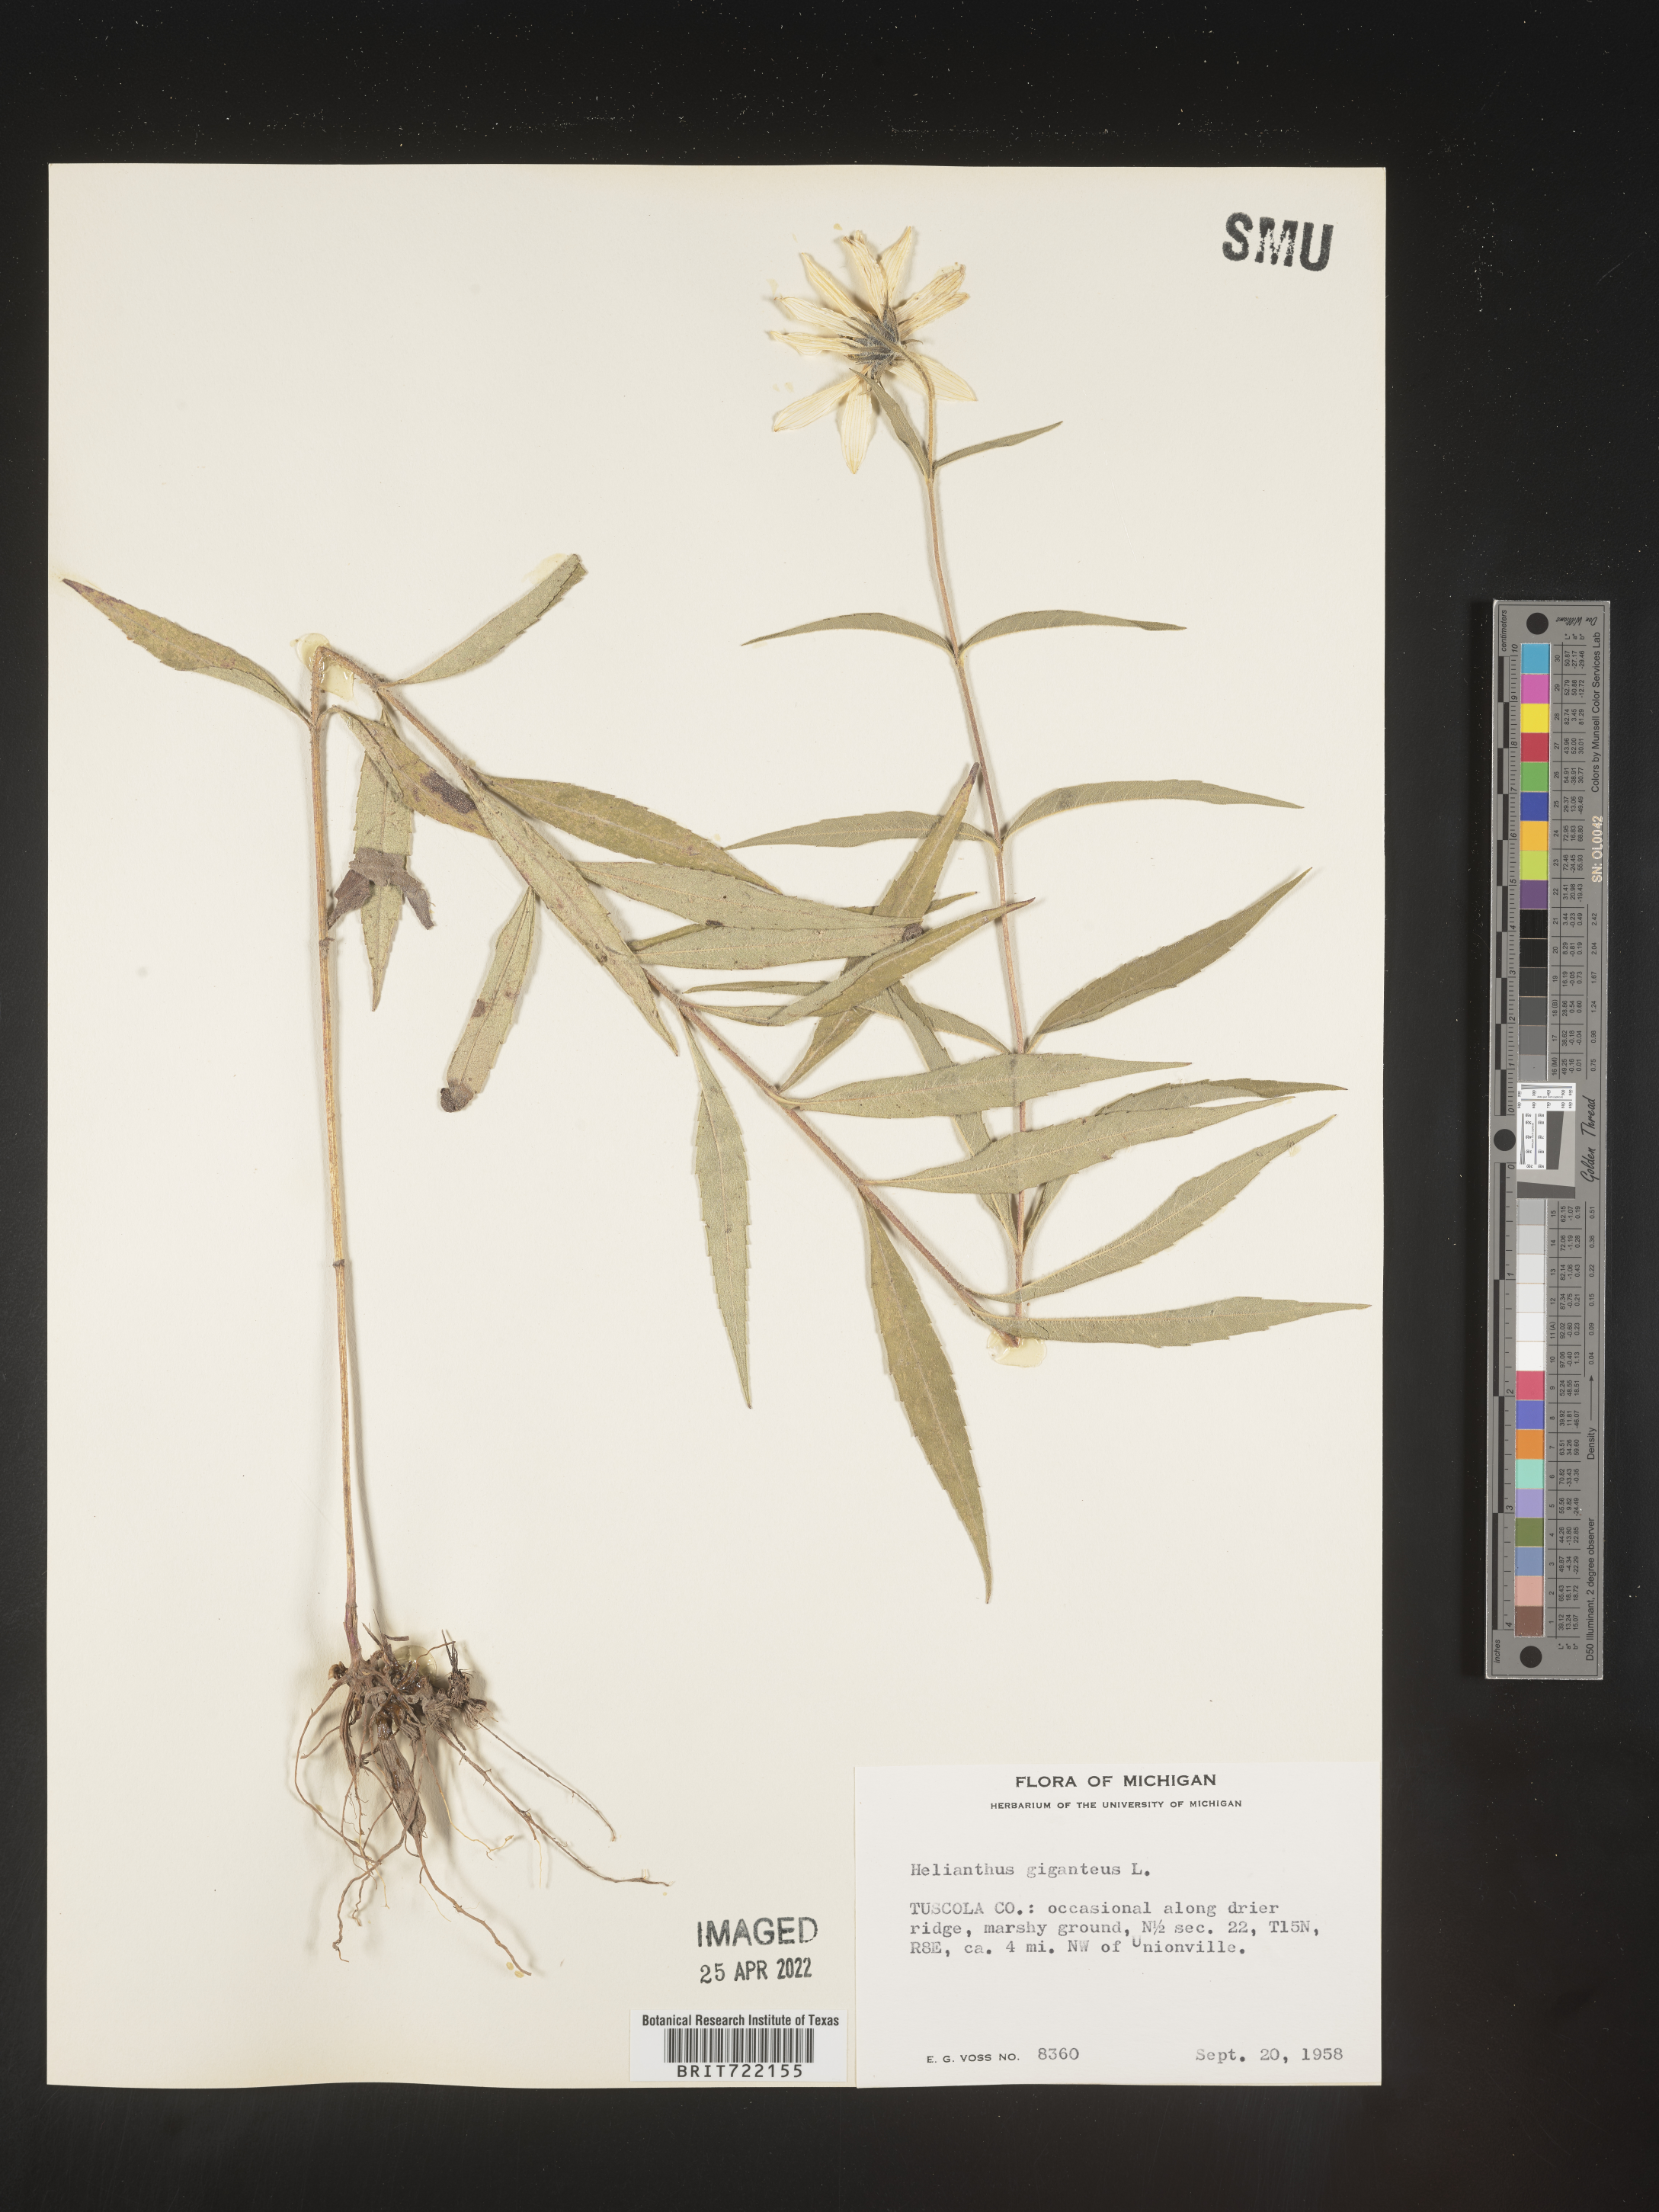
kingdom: Plantae
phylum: Tracheophyta
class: Magnoliopsida
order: Asterales
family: Asteraceae
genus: Helianthus
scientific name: Helianthus giganteus
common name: Giant sunflower
